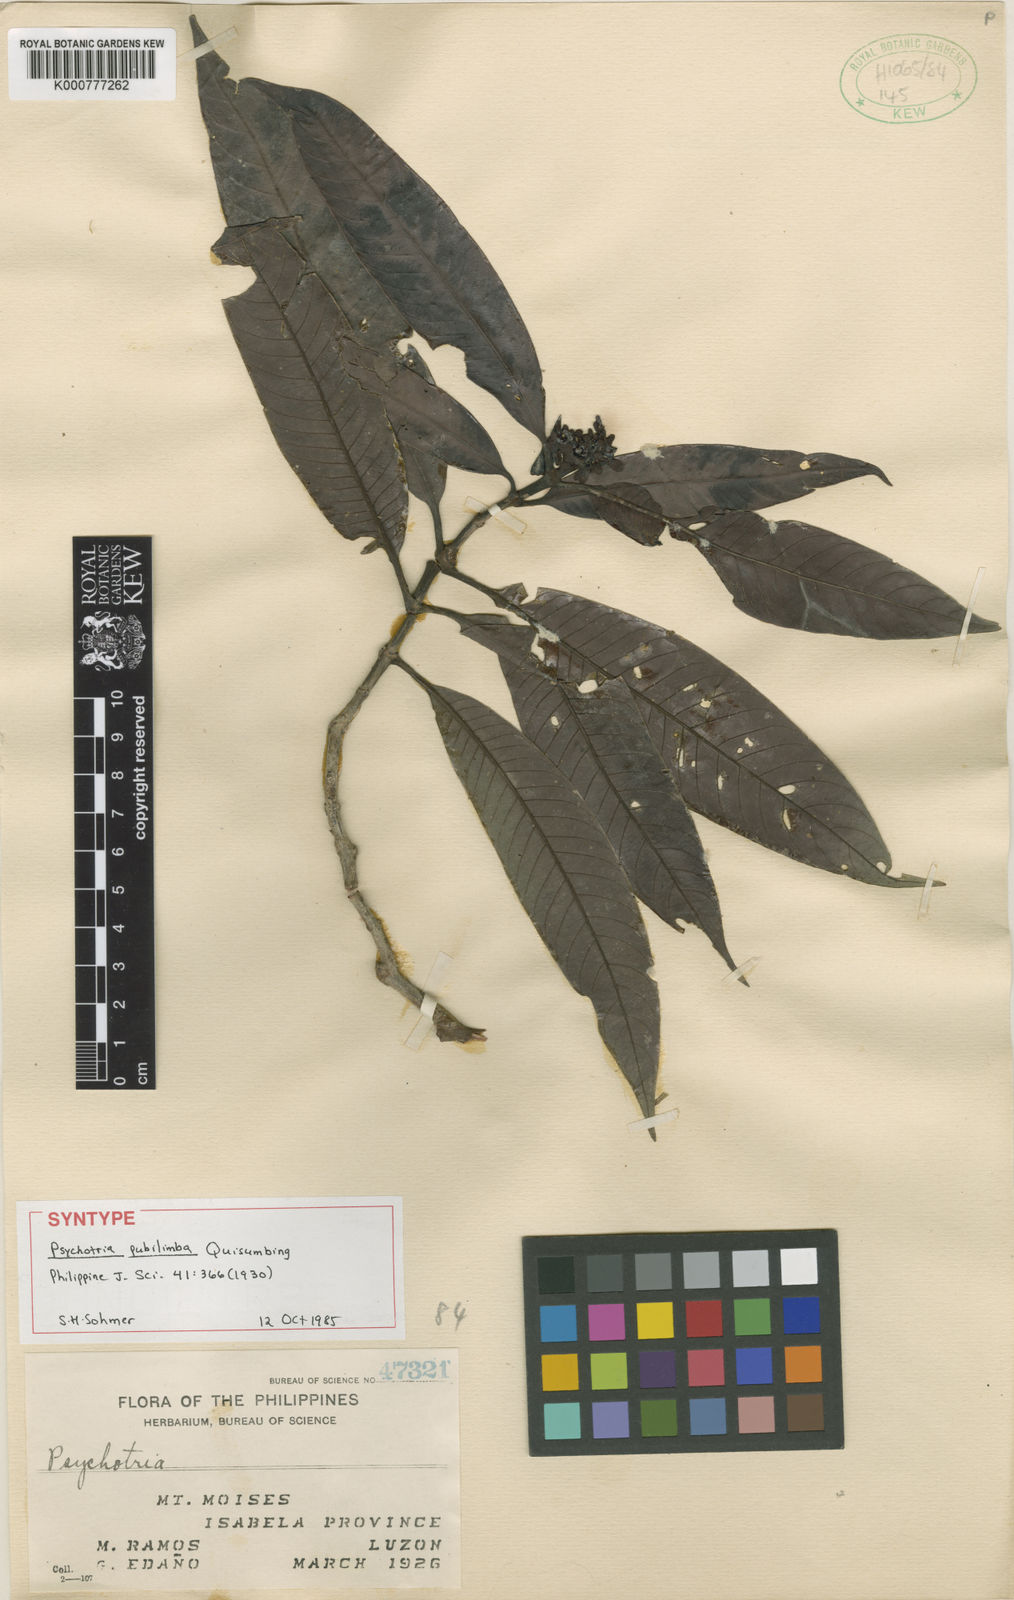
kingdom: Plantae
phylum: Tracheophyta
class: Magnoliopsida
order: Gentianales
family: Rubiaceae
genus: Psychotria
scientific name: Psychotria pubilimba
